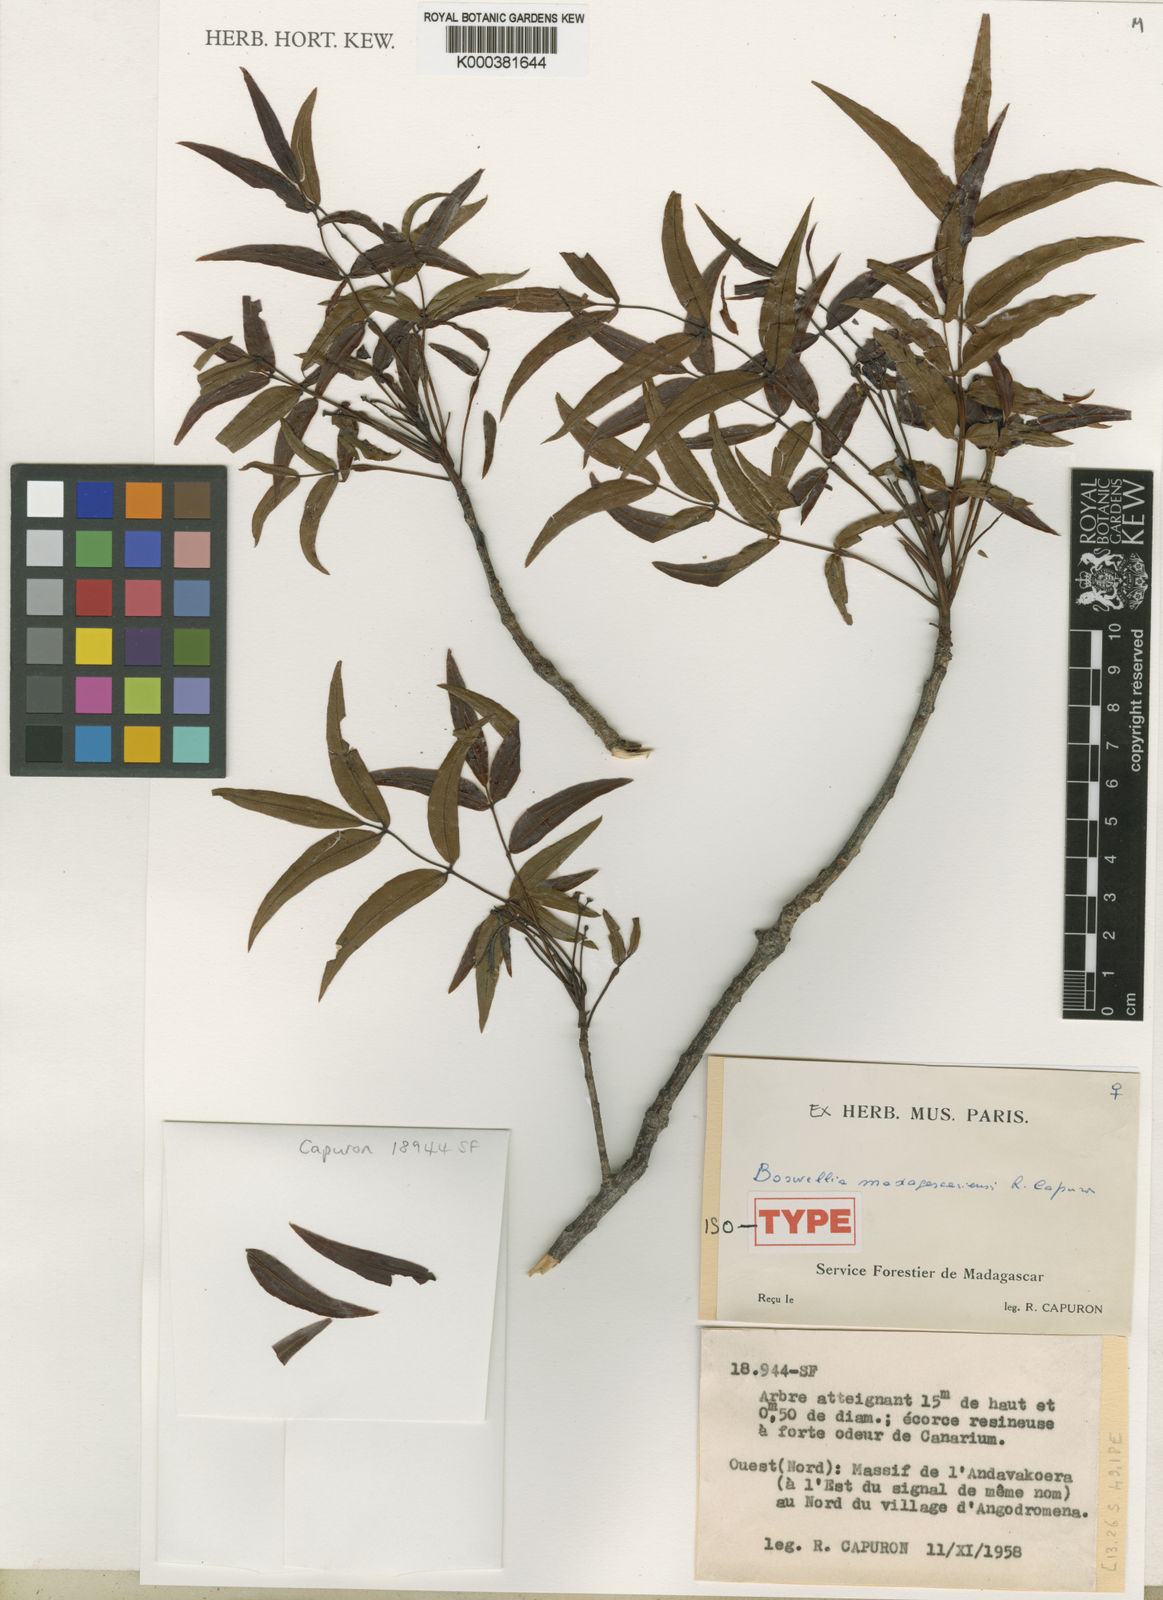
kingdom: Plantae
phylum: Tracheophyta
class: Magnoliopsida
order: Sapindales
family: Burseraceae
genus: Ambilobea
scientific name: Ambilobea madagascariensis
